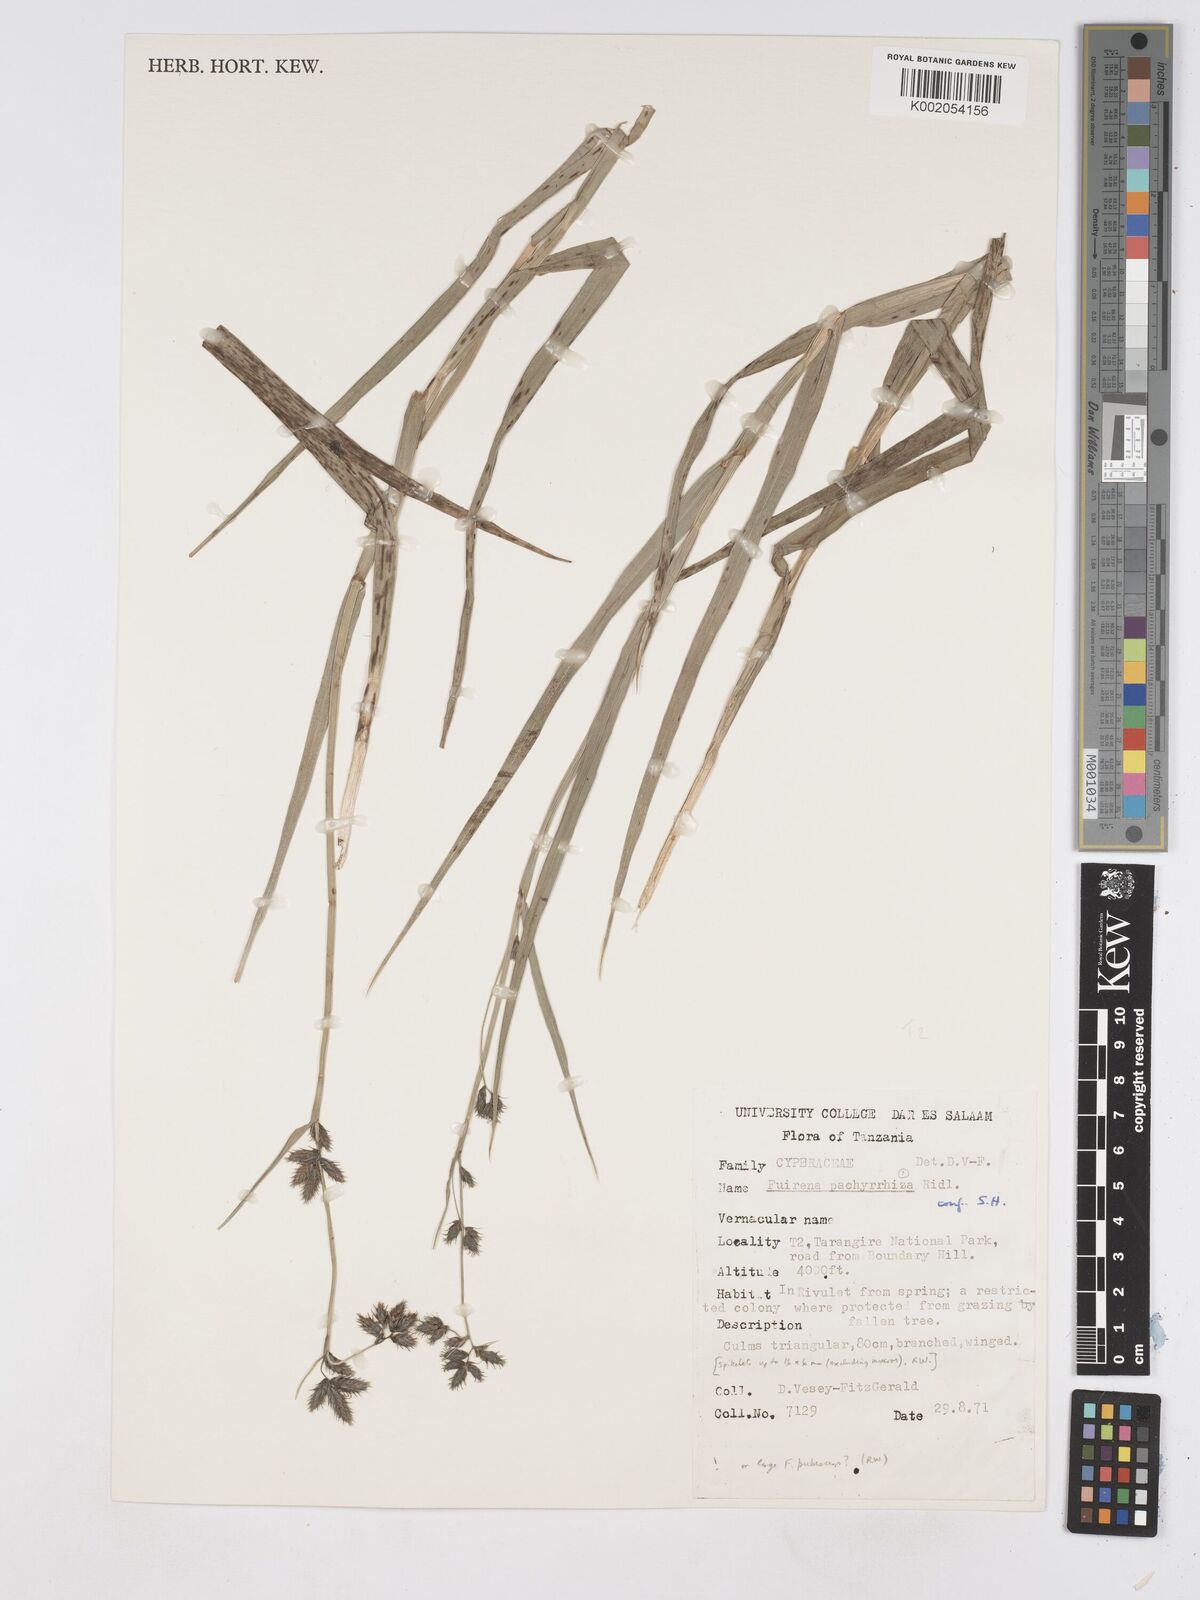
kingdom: Plantae
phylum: Tracheophyta
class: Liliopsida
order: Poales
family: Cyperaceae
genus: Fuirena
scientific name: Fuirena pachyrrhiza
